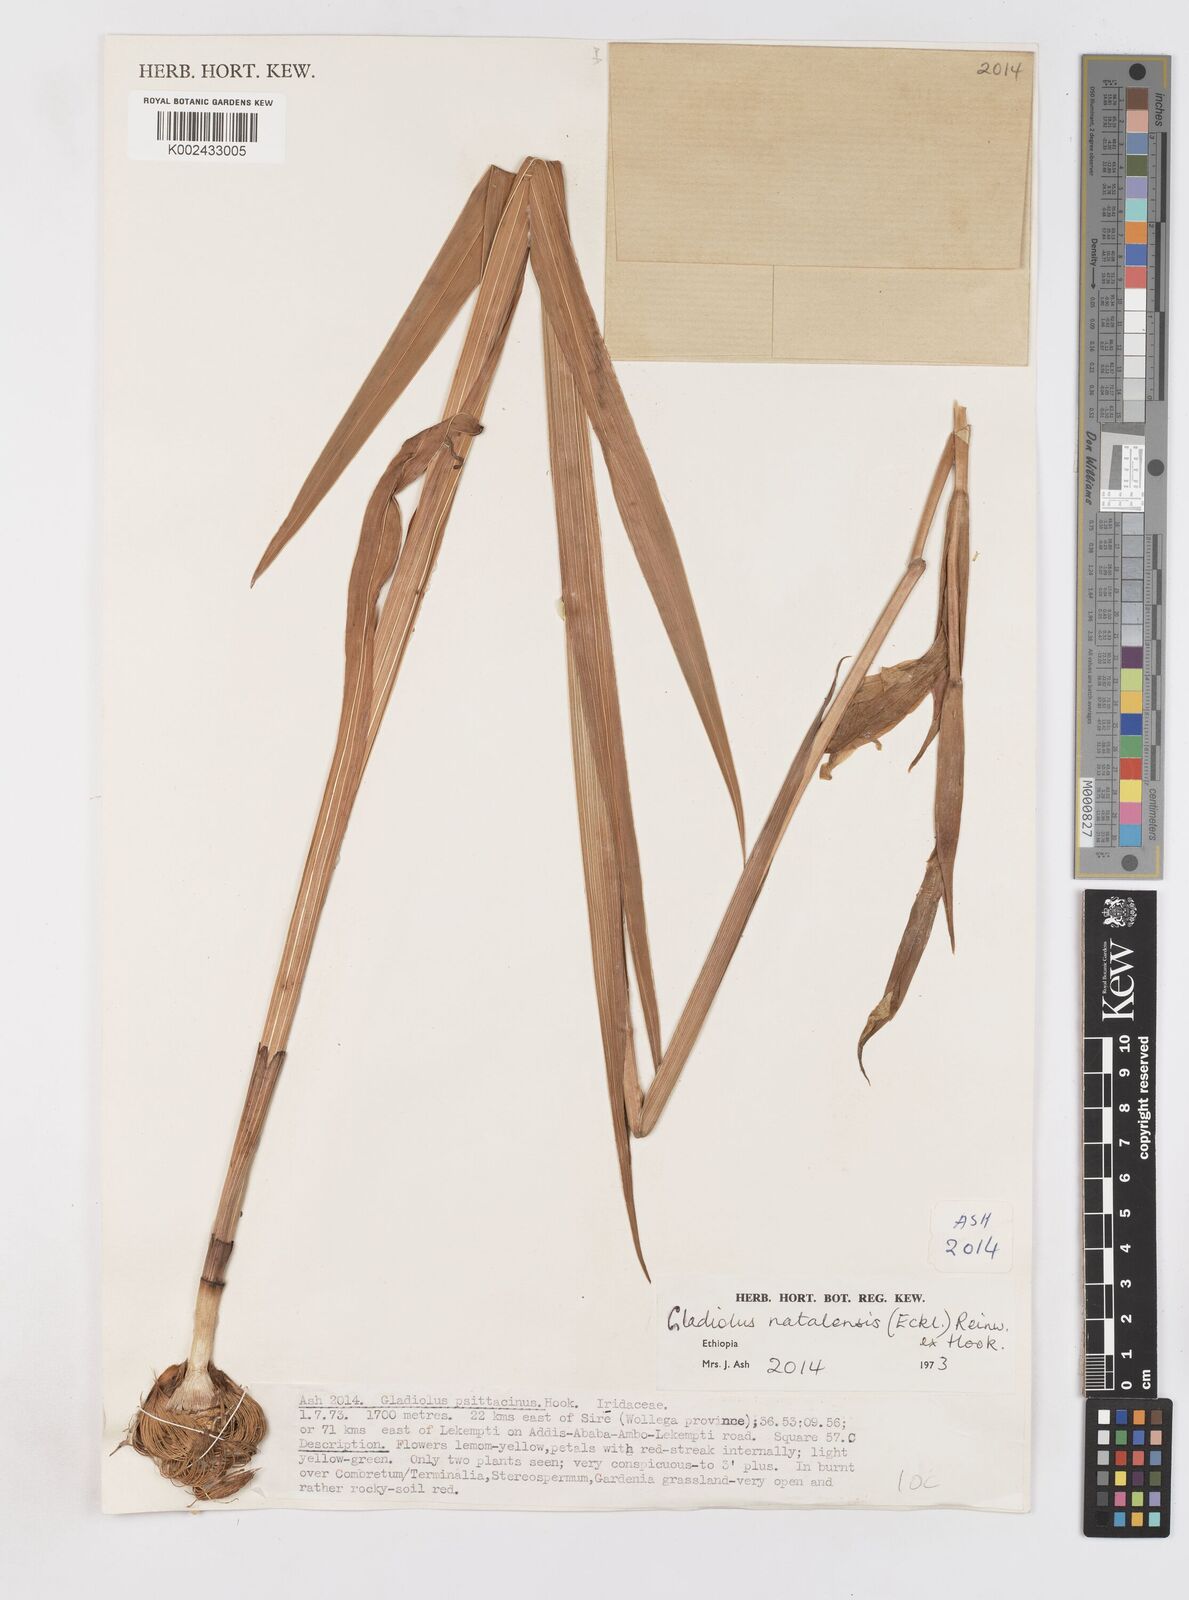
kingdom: Plantae
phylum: Tracheophyta
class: Liliopsida
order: Asparagales
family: Iridaceae
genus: Gladiolus
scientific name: Gladiolus dalenii
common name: Cornflag
